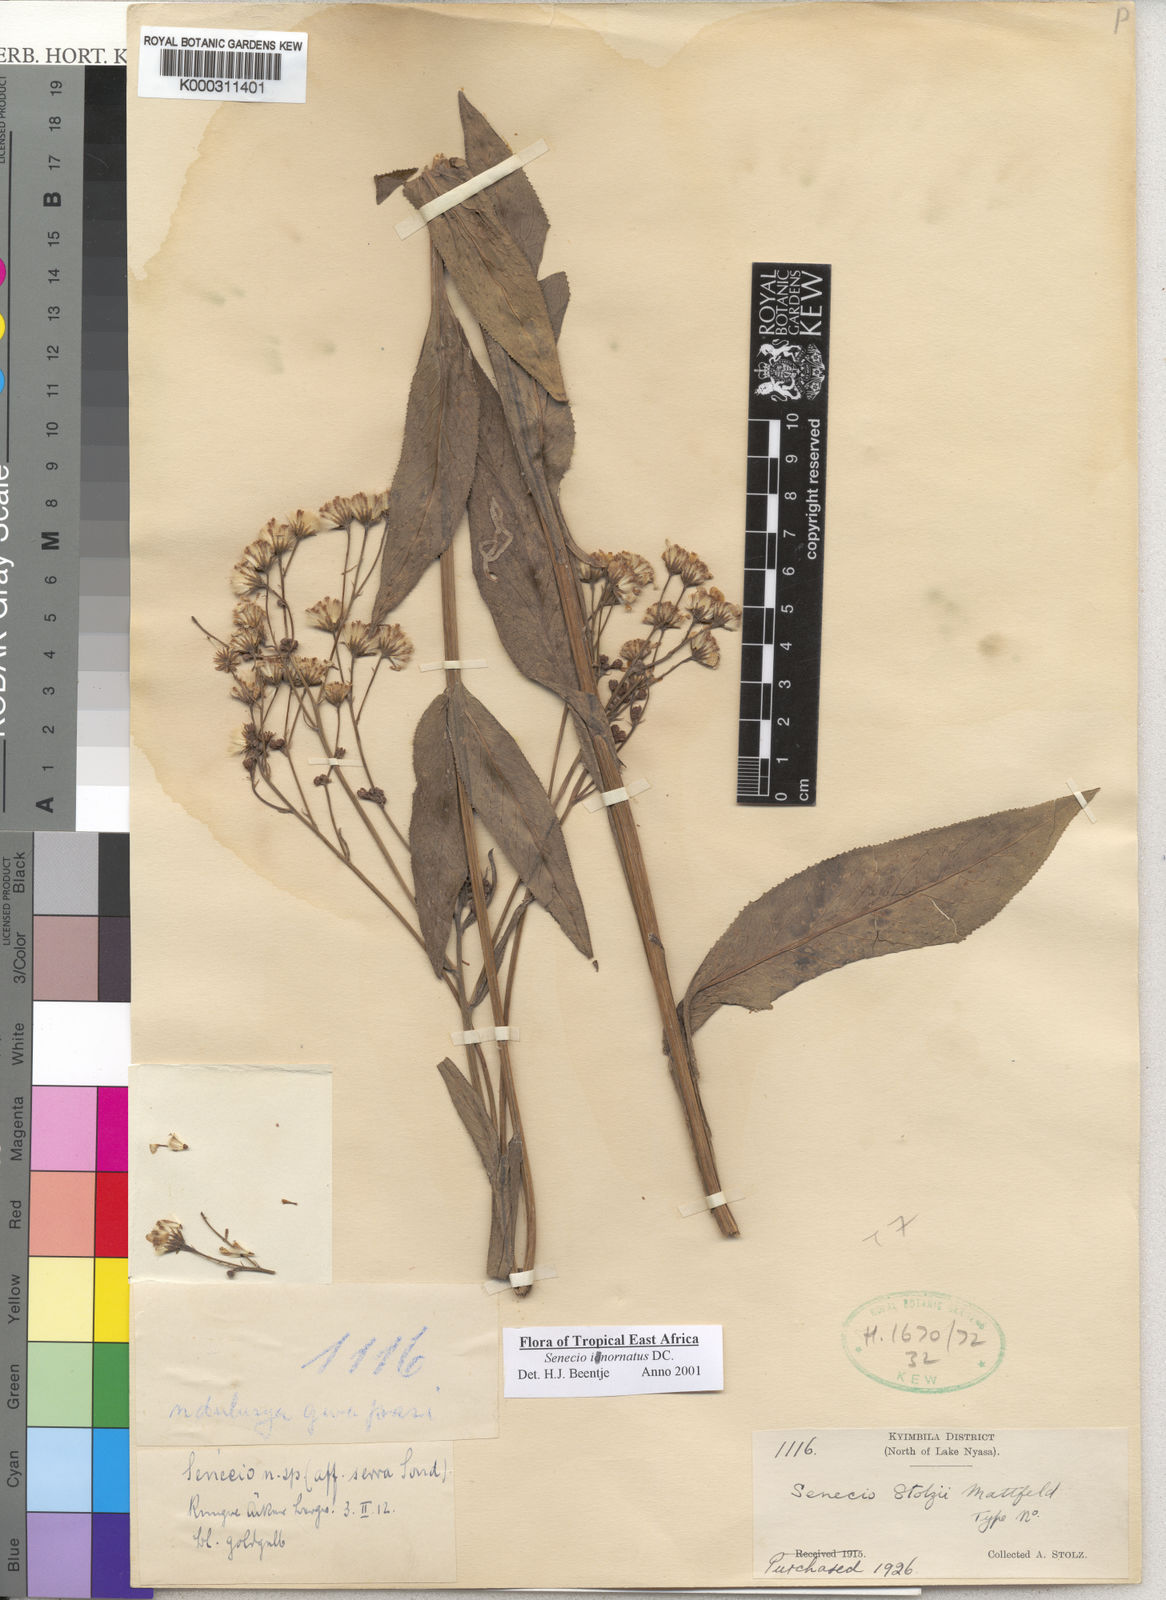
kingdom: Plantae
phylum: Tracheophyta
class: Magnoliopsida
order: Asterales
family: Asteraceae
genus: Senecio
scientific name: Senecio inornatus
